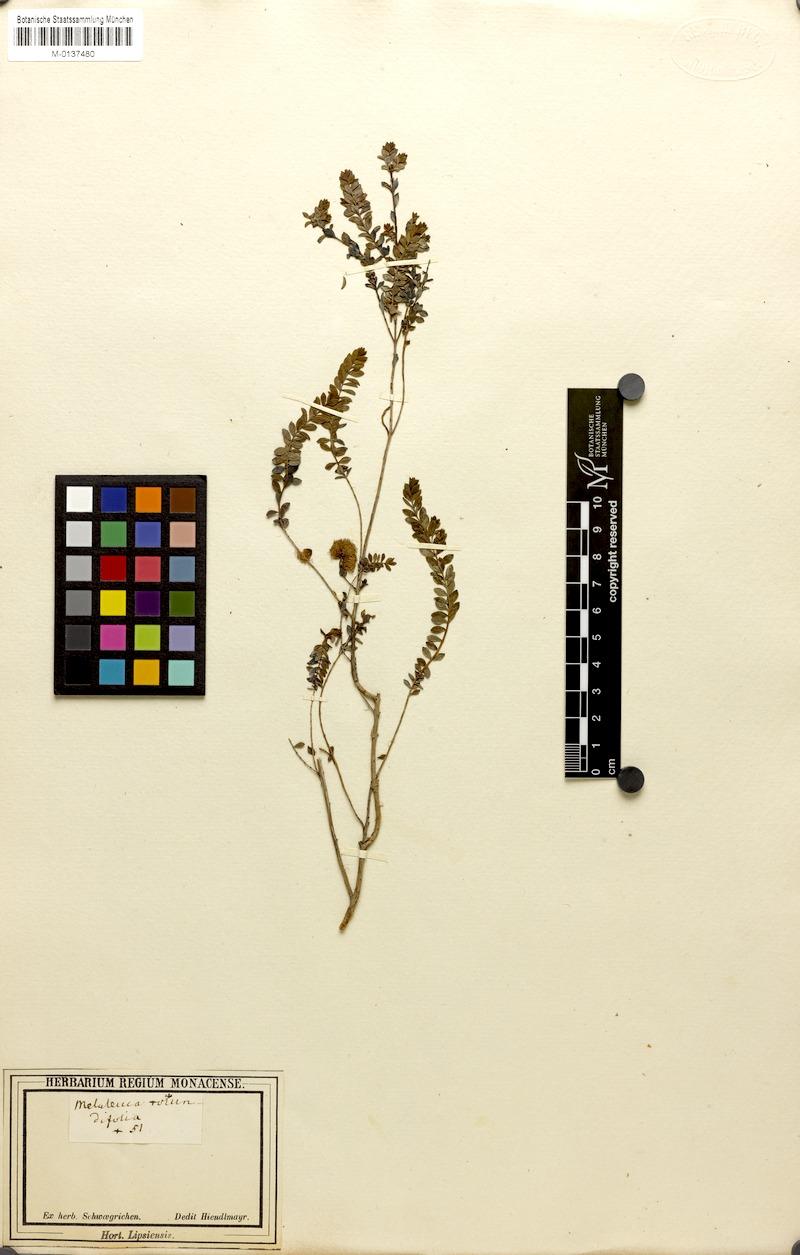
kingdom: Plantae
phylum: Tracheophyta
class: Magnoliopsida
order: Myrtales
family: Myrtaceae
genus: Melaleuca
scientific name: Melaleuca crossota
